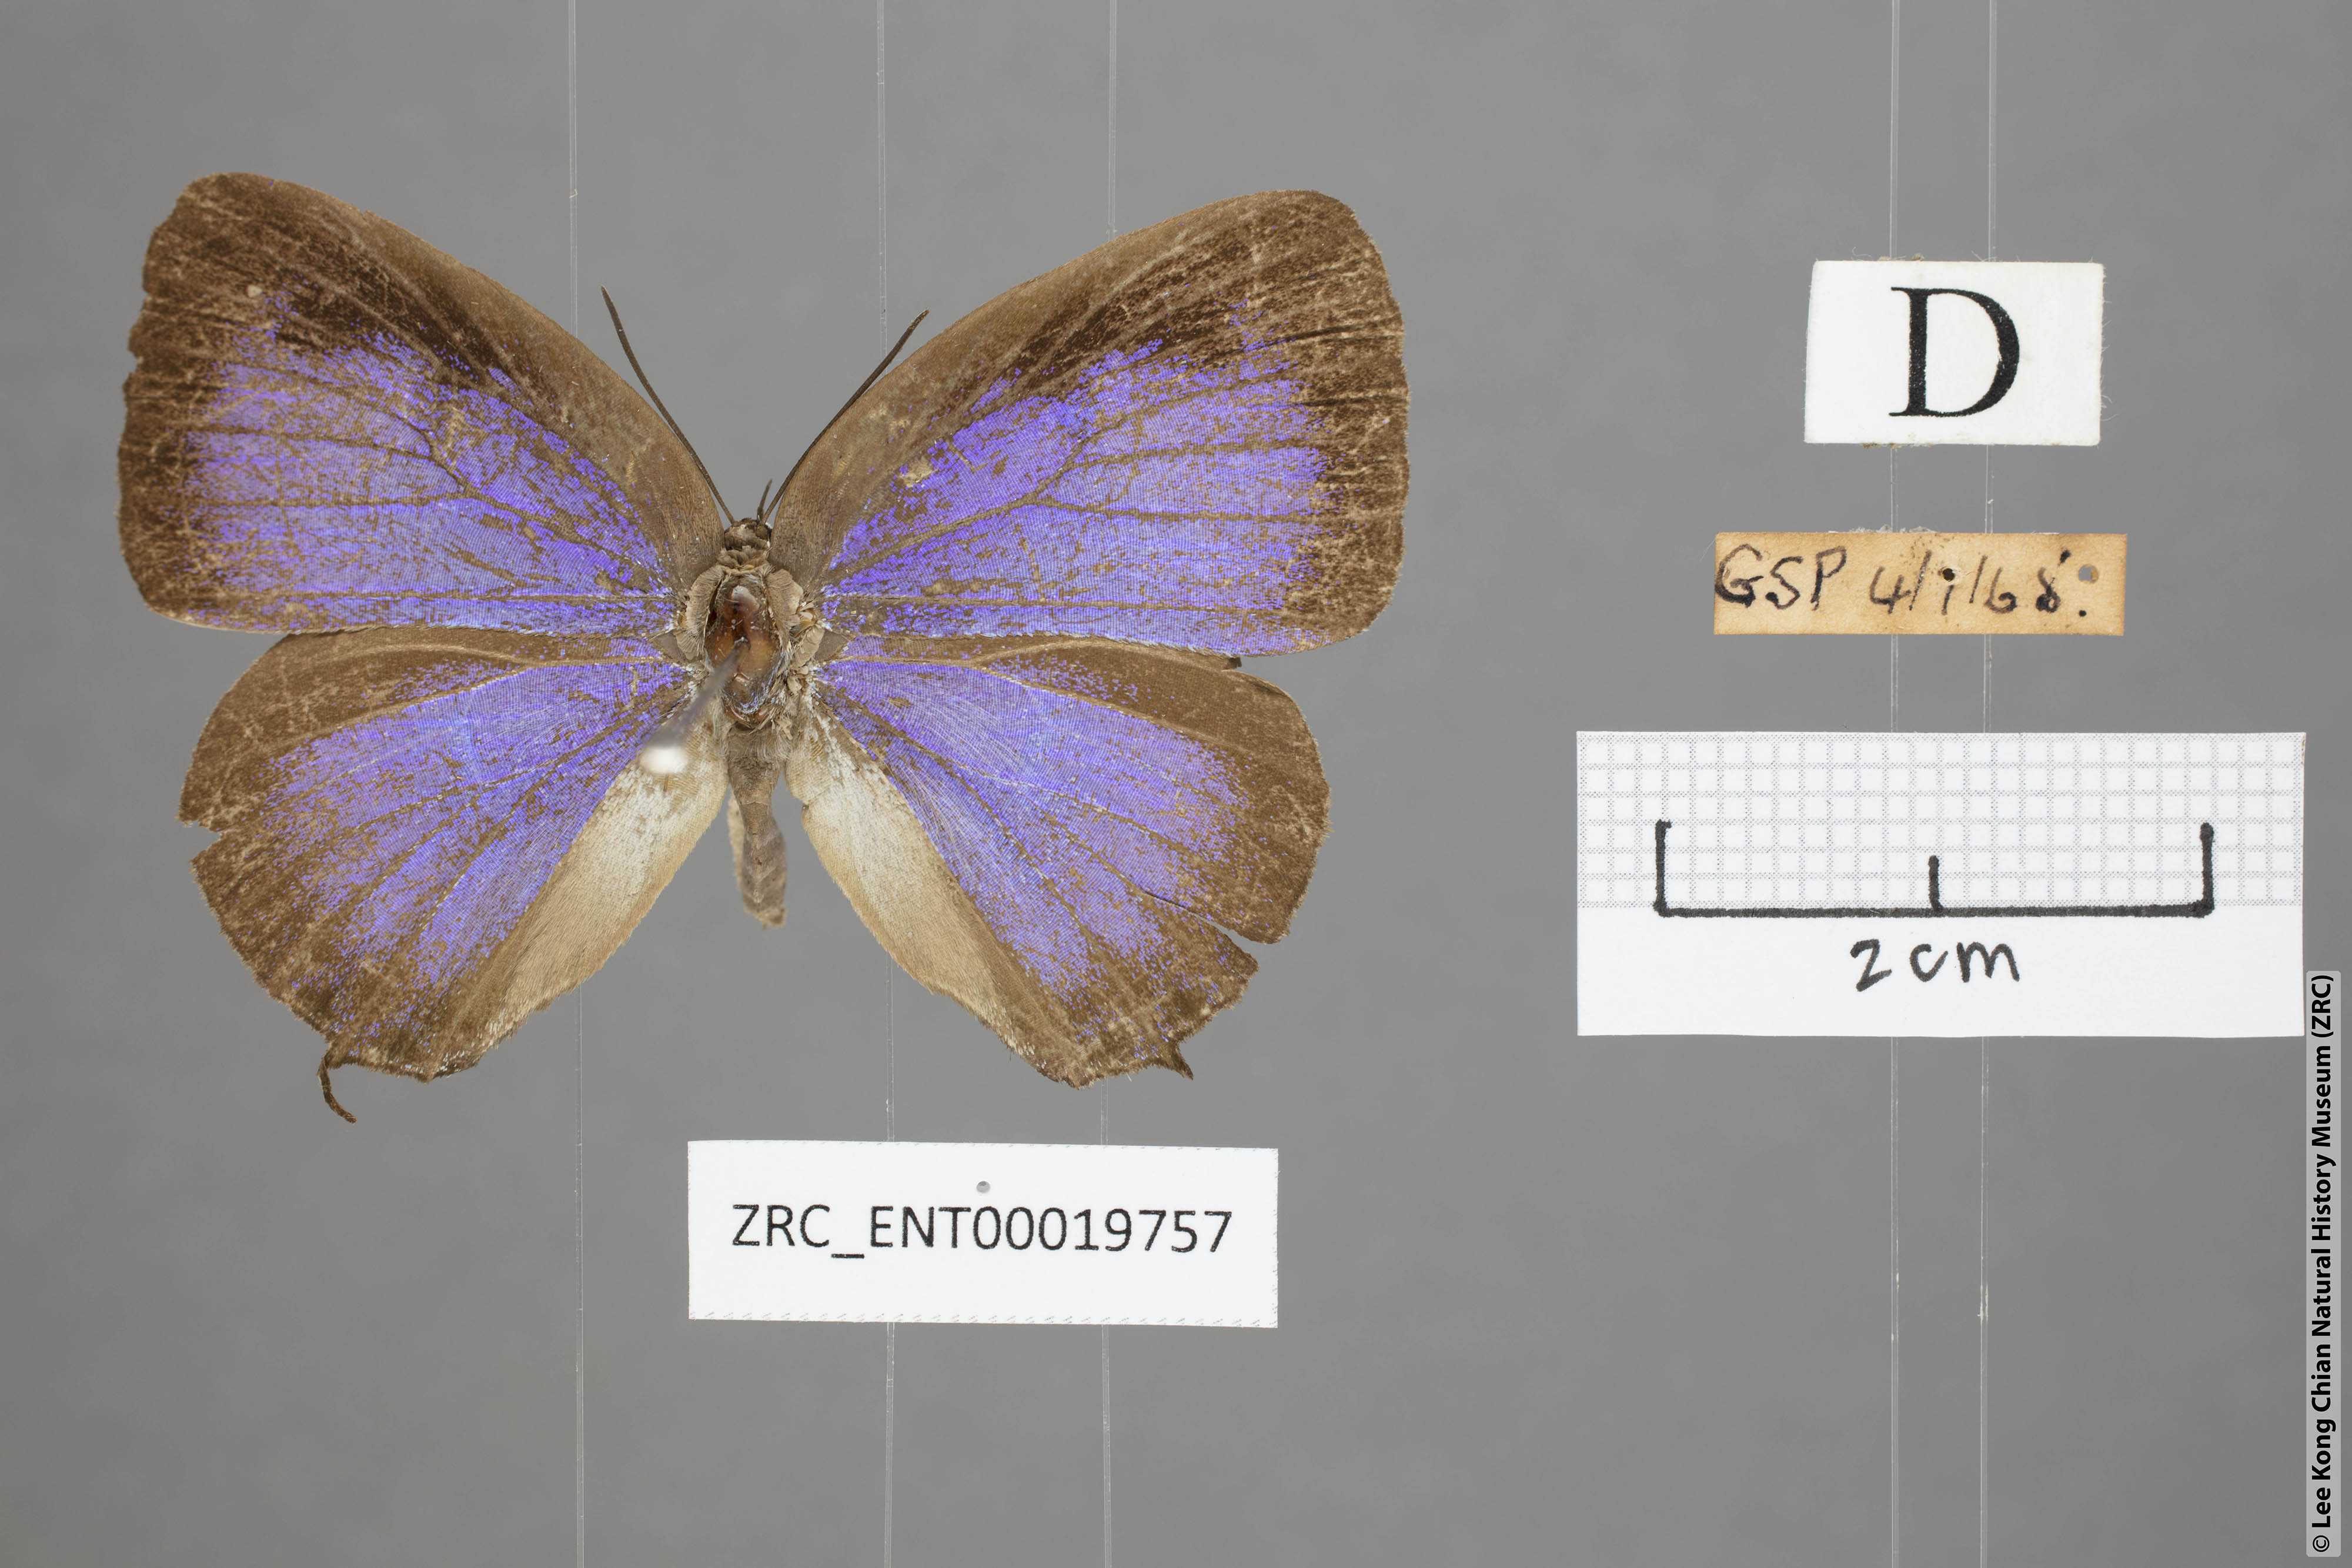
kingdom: Animalia
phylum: Arthropoda
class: Insecta
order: Lepidoptera
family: Lycaenidae
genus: Arhopala
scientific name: Arhopala opalina
